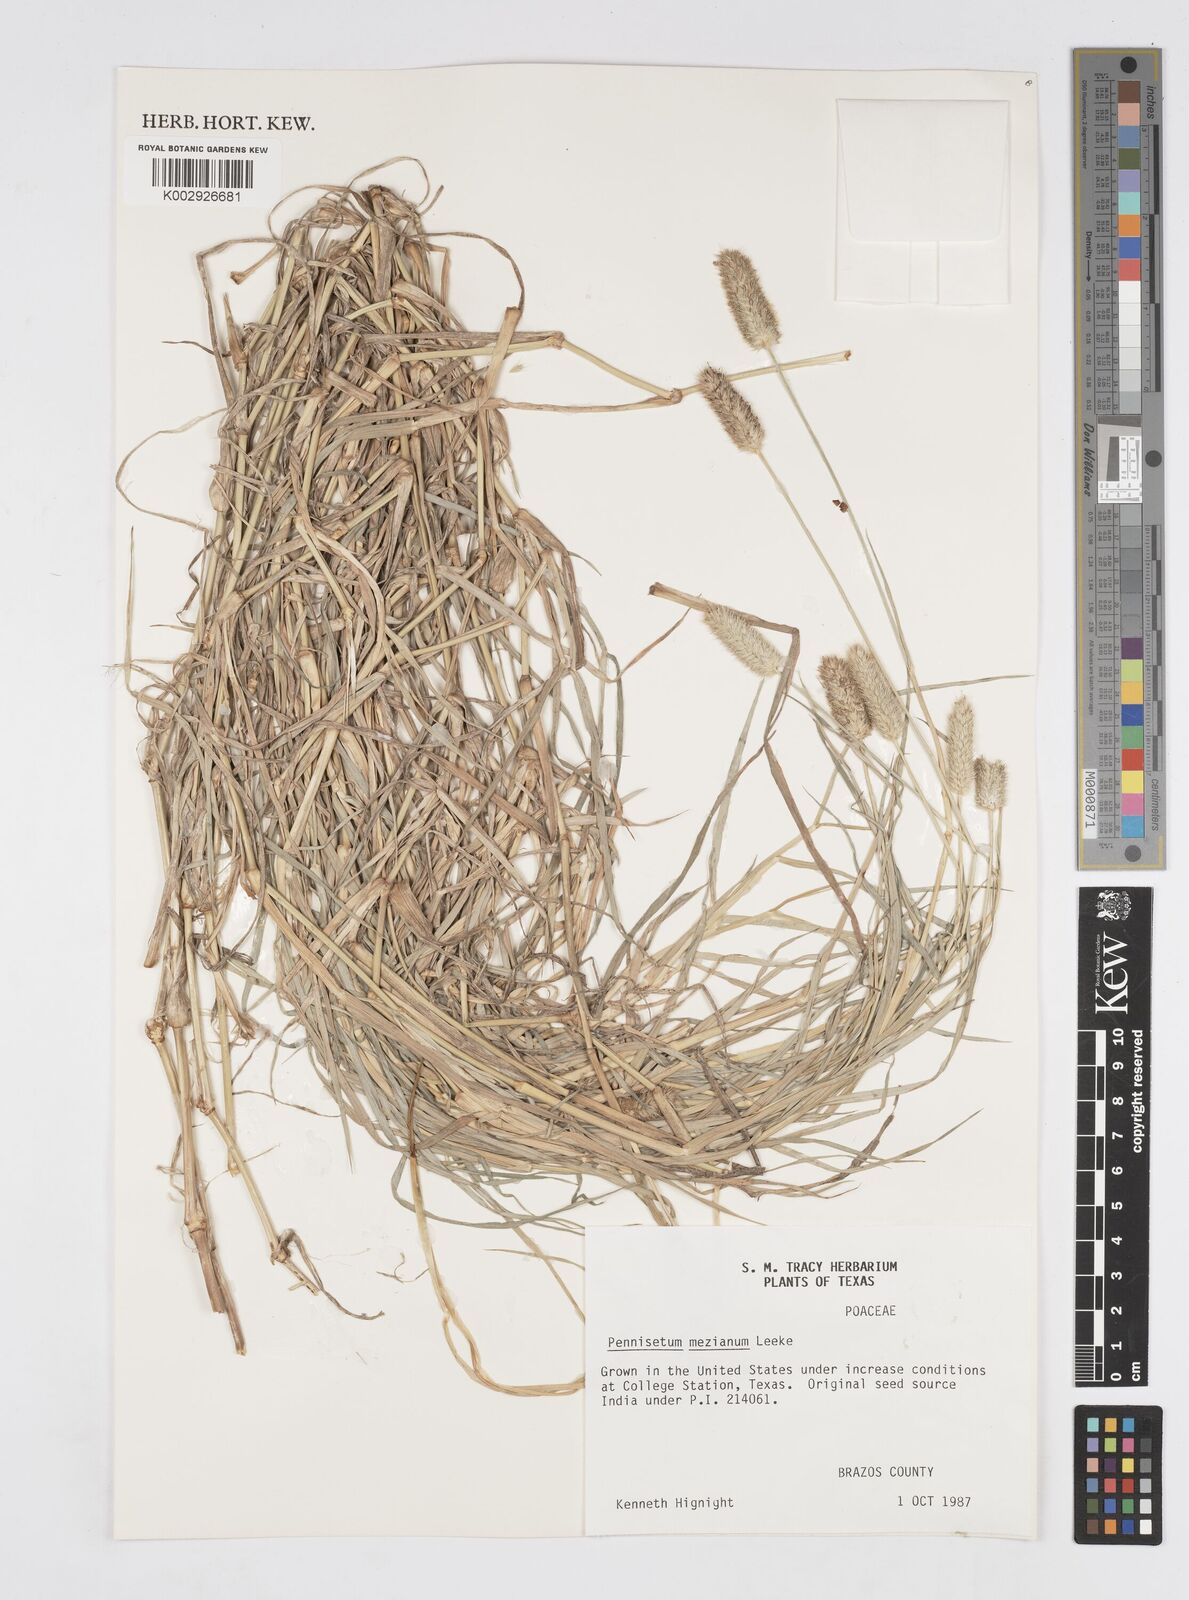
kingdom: Plantae
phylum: Tracheophyta
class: Liliopsida
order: Poales
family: Poaceae
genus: Cenchrus
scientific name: Cenchrus mezianus
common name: Bamboo grass
